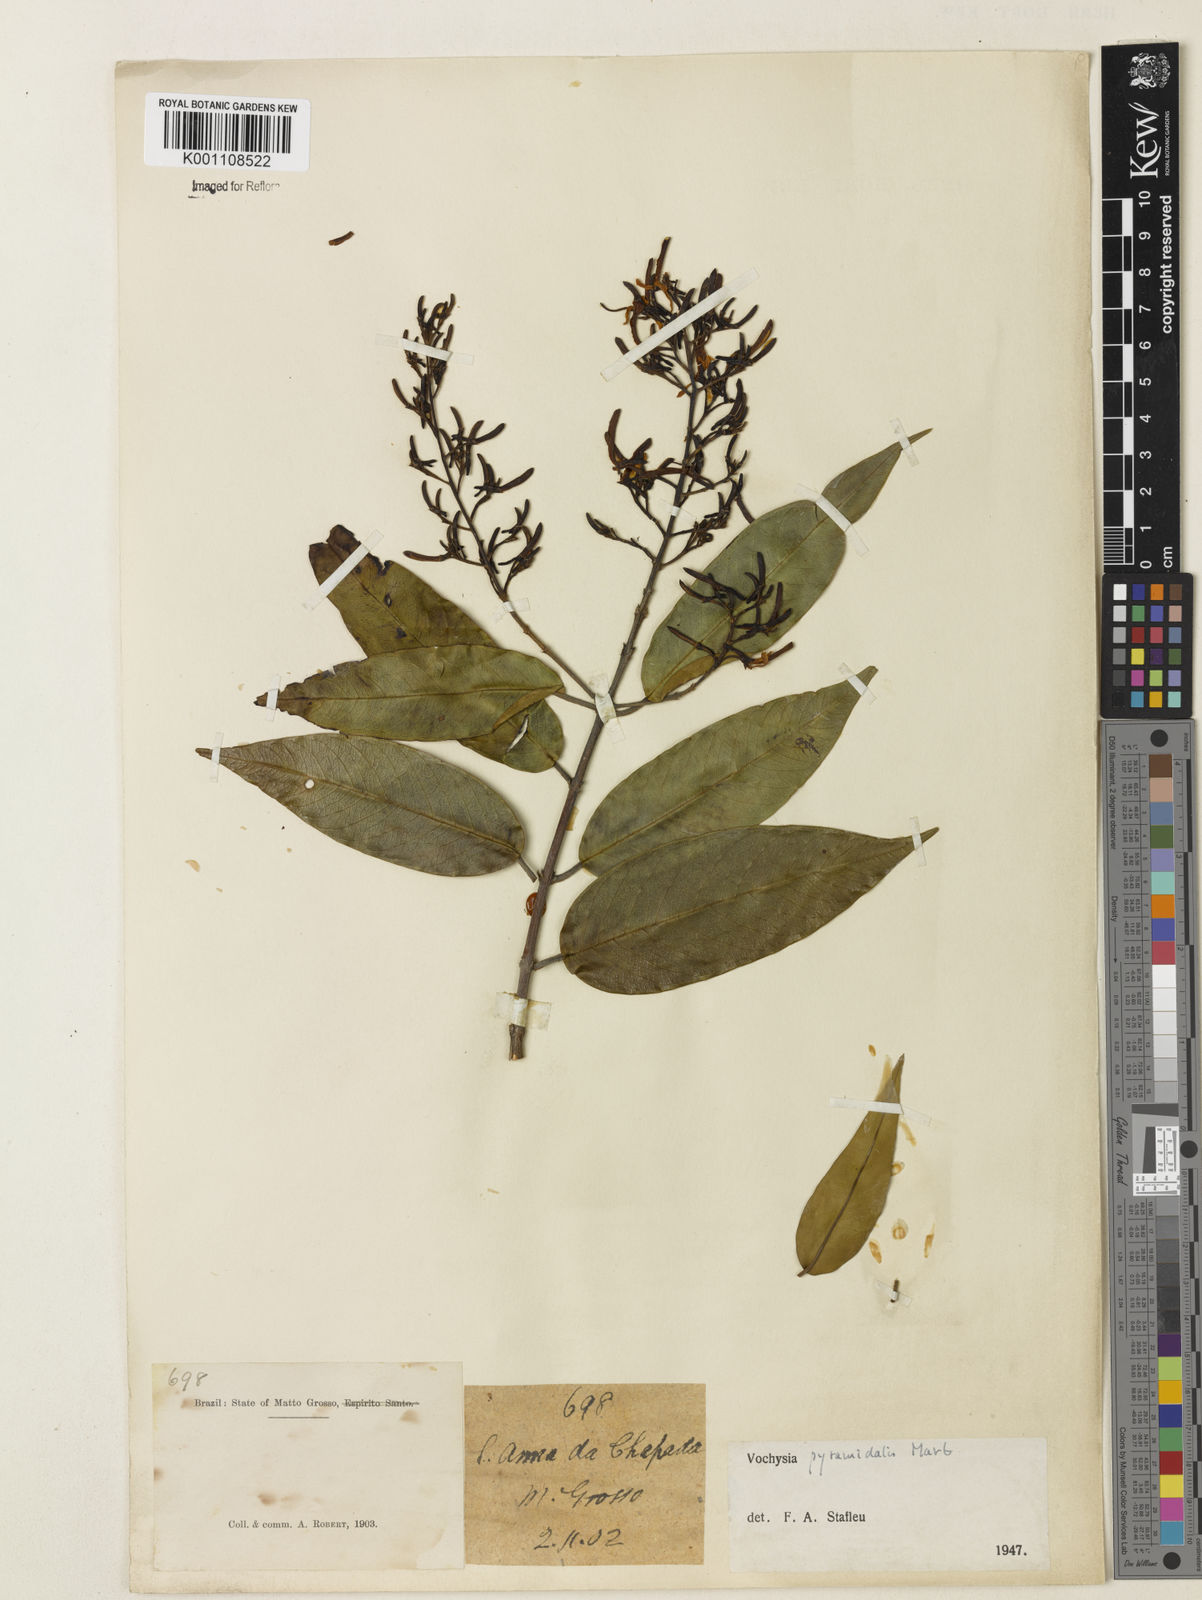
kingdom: Plantae
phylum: Tracheophyta
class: Magnoliopsida
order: Myrtales
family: Vochysiaceae
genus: Vochysia
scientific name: Vochysia pyramidalis
